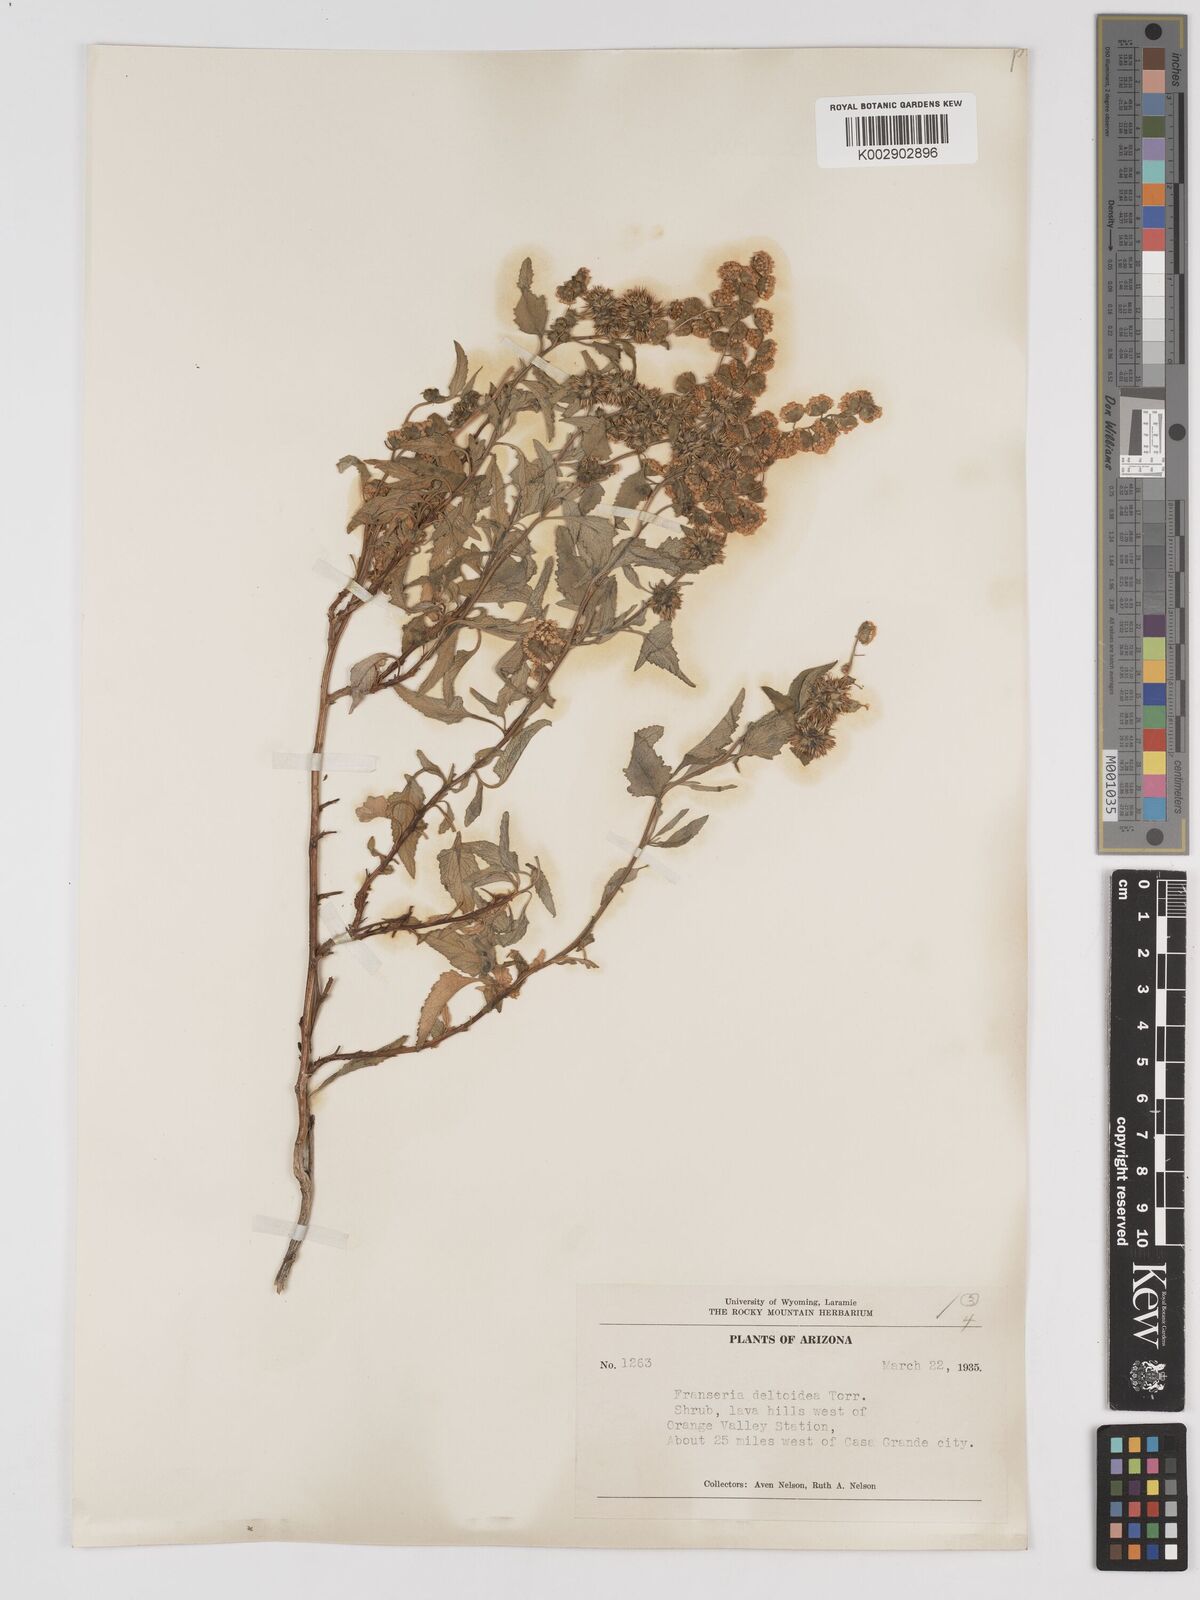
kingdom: Plantae
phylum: Tracheophyta
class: Magnoliopsida
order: Asterales
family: Asteraceae
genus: Ambrosia
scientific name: Ambrosia
